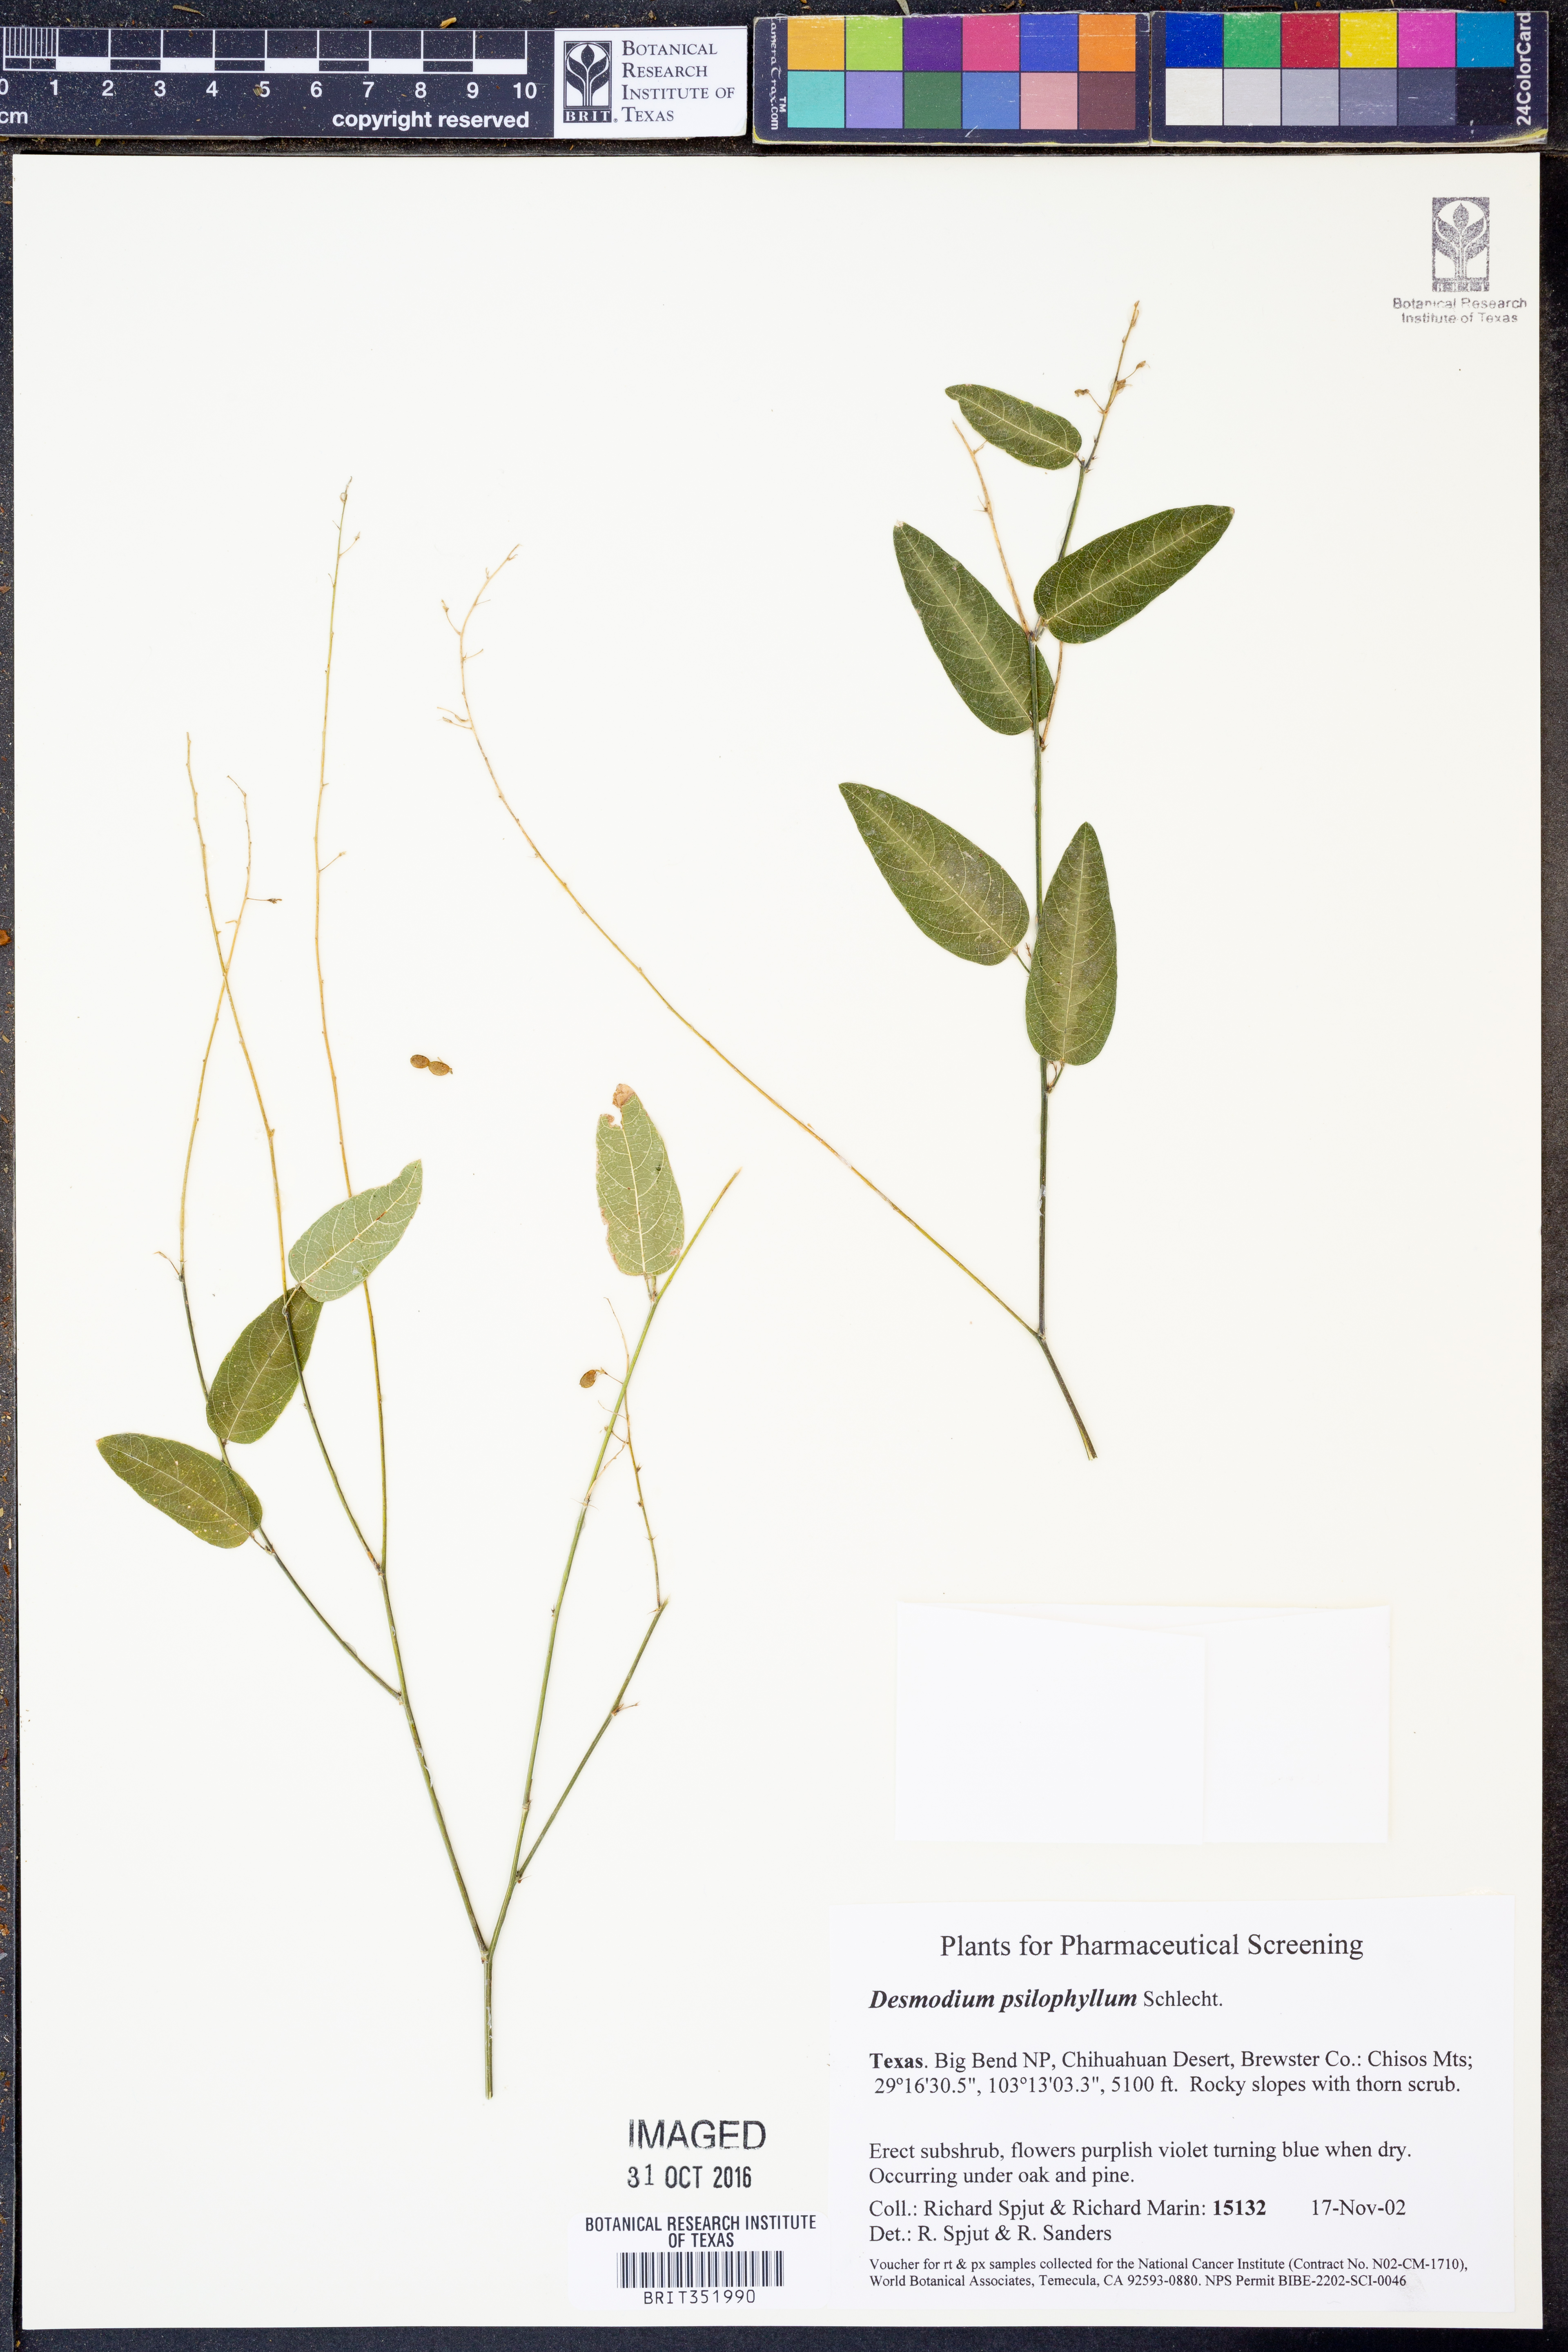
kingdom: Plantae
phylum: Tracheophyta
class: Magnoliopsida
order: Fabales
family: Fabaceae
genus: Desmodium
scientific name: Desmodium psilophyllum
